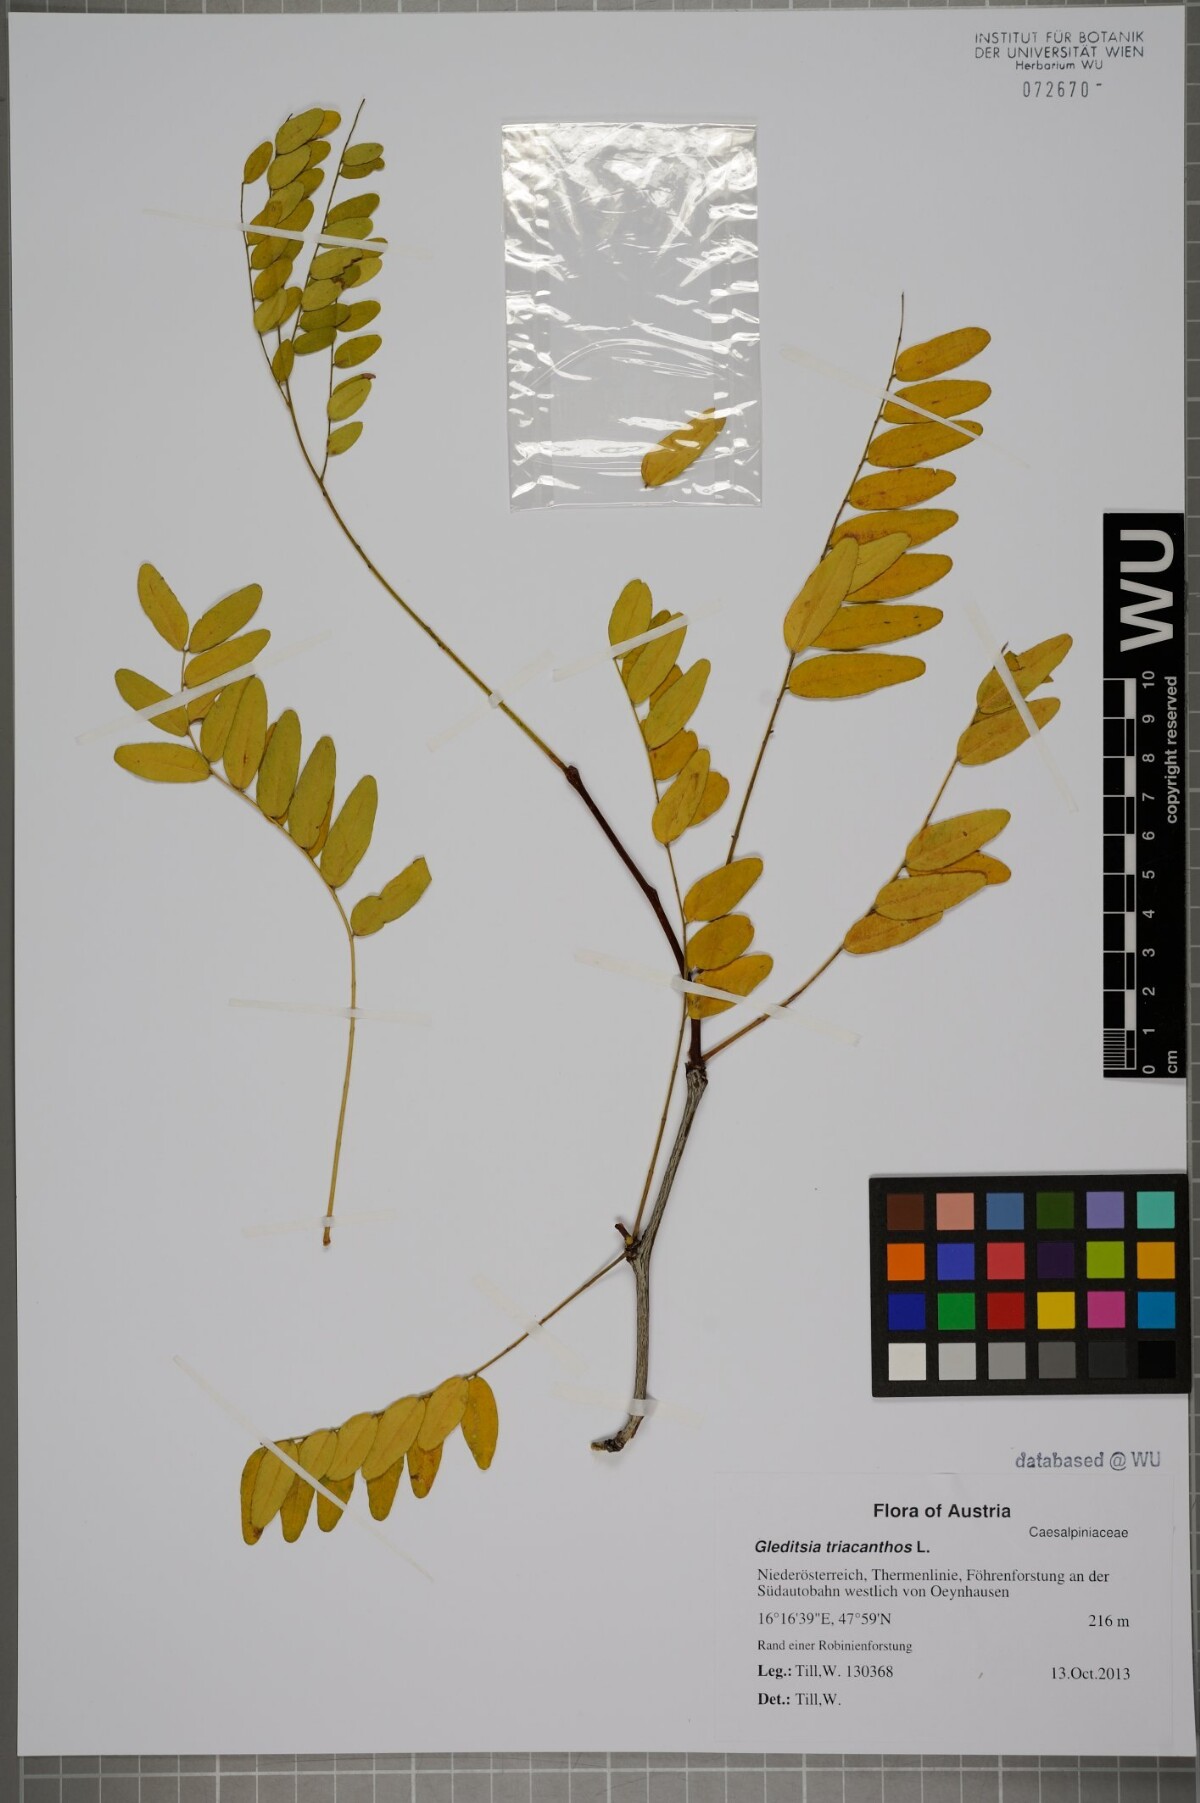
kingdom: Plantae
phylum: Tracheophyta
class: Magnoliopsida
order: Fabales
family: Fabaceae
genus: Gleditsia
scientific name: Gleditsia triacanthos
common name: Common honeylocust
